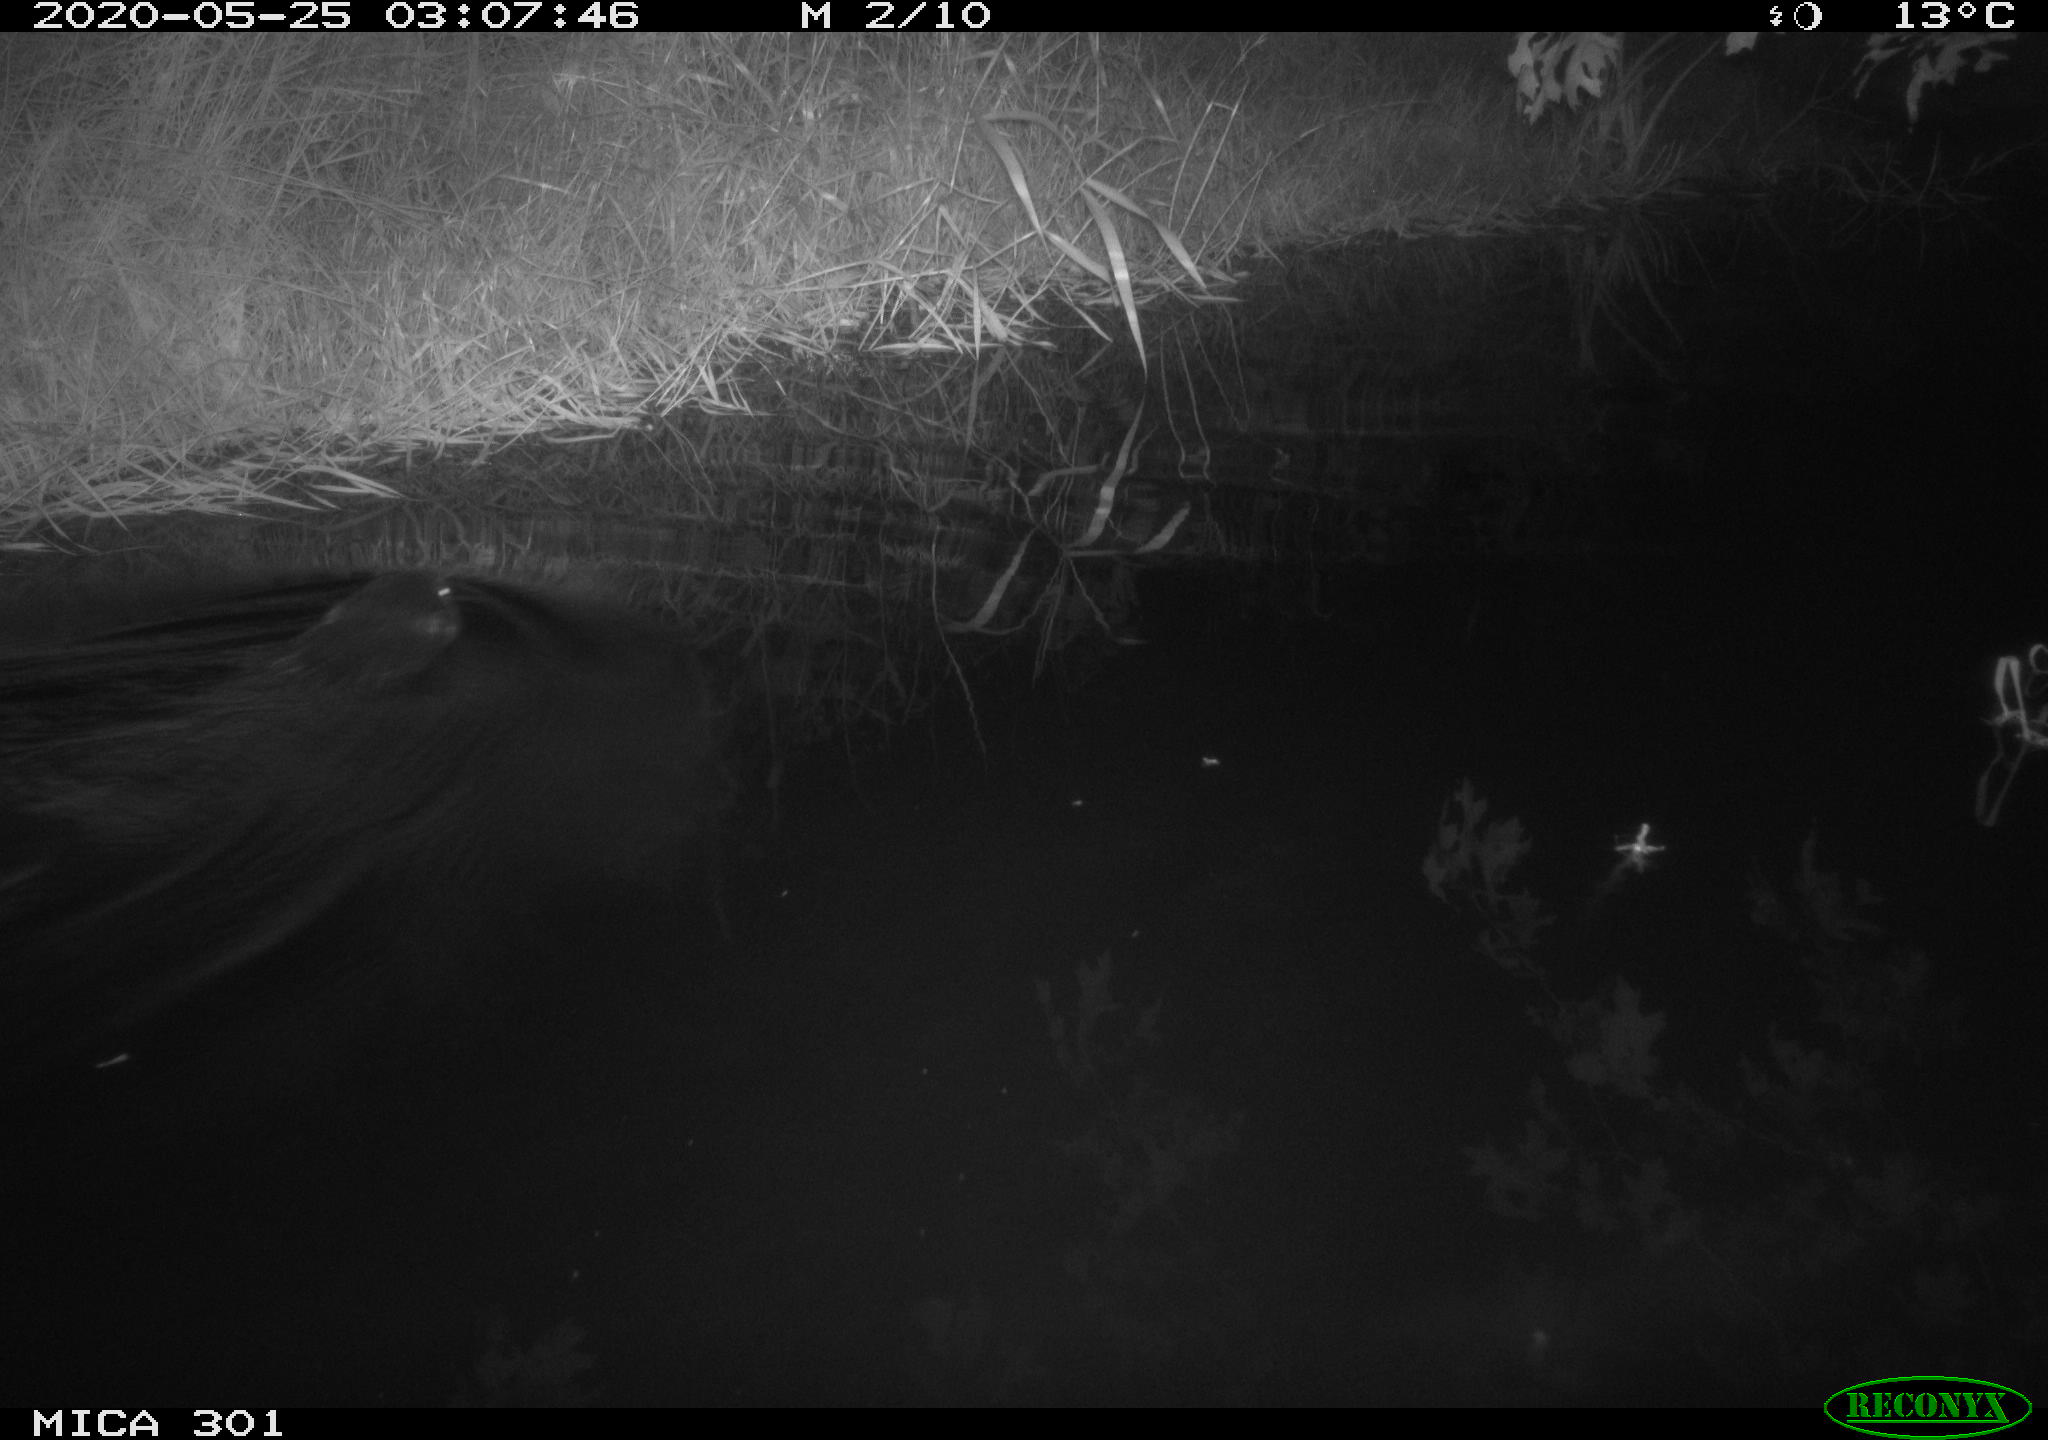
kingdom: Animalia
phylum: Chordata
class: Mammalia
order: Rodentia
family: Castoridae
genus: Castor
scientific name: Castor fiber
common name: Eurasian beaver
